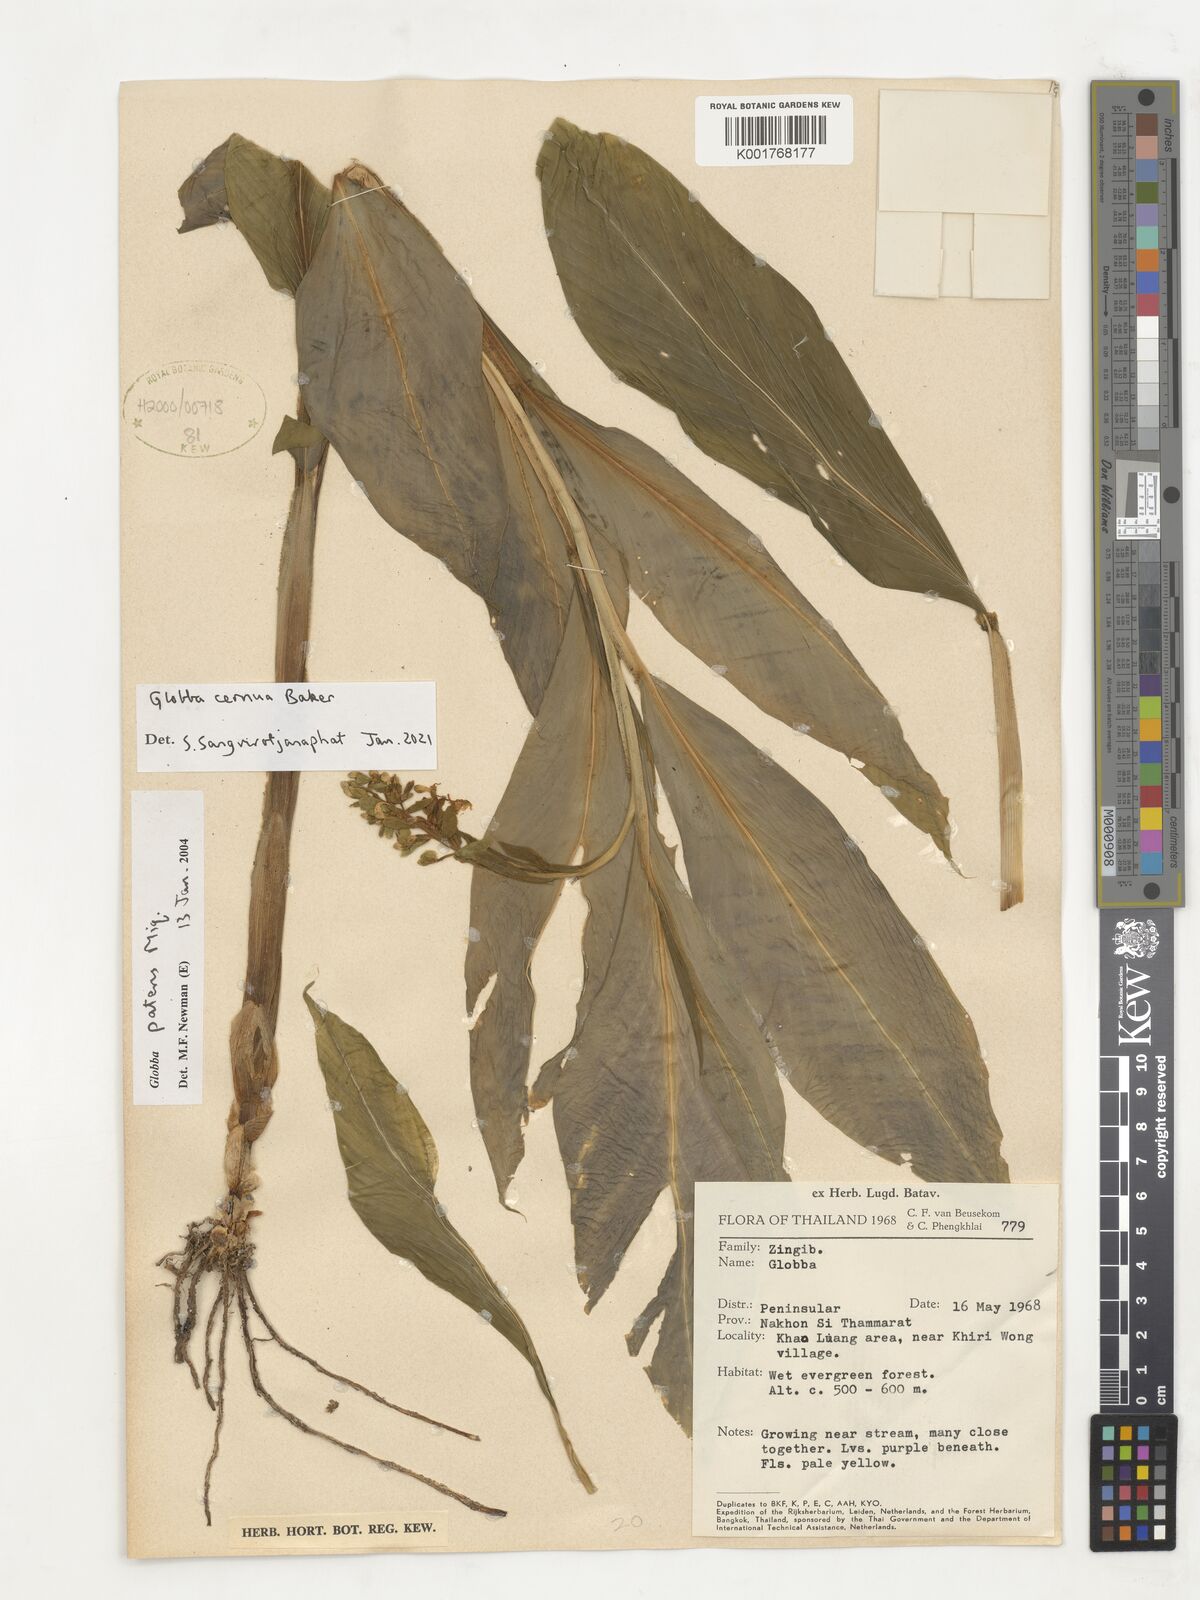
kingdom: Plantae
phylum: Tracheophyta
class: Liliopsida
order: Zingiberales
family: Zingiberaceae
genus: Globba
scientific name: Globba cernua
